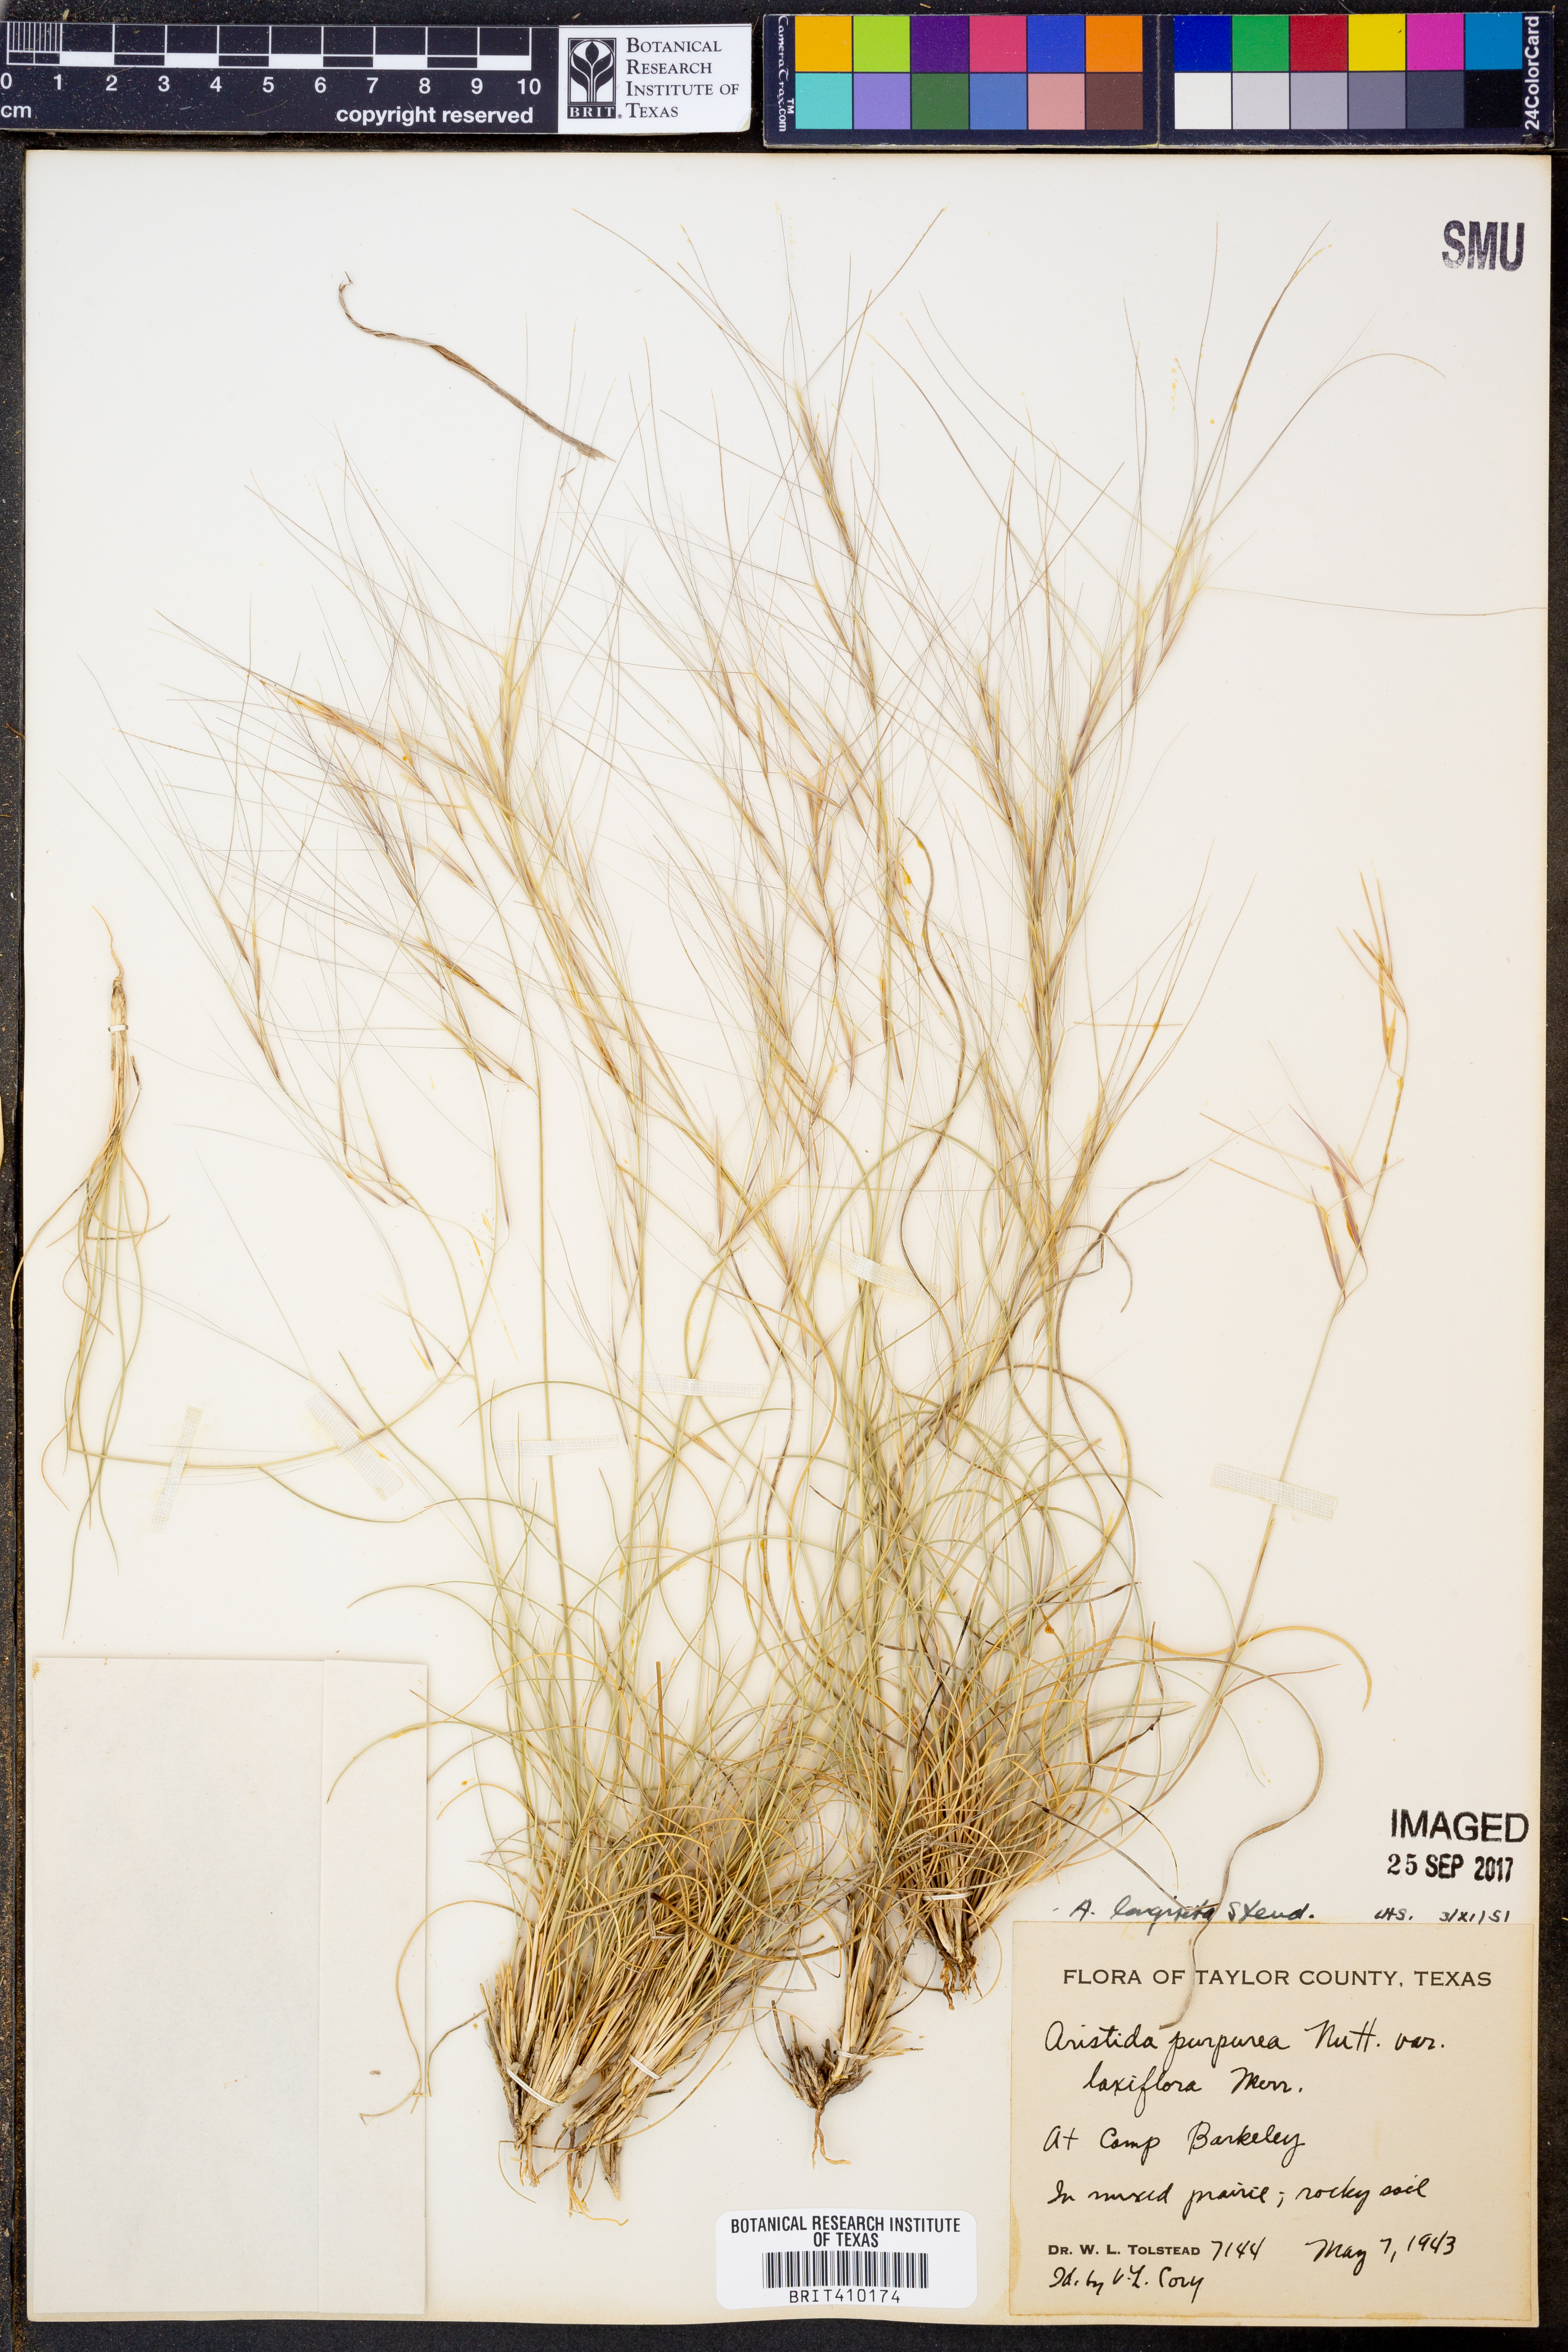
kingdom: Plantae
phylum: Tracheophyta
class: Liliopsida
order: Poales
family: Poaceae
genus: Aristida
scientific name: Aristida longiseta
